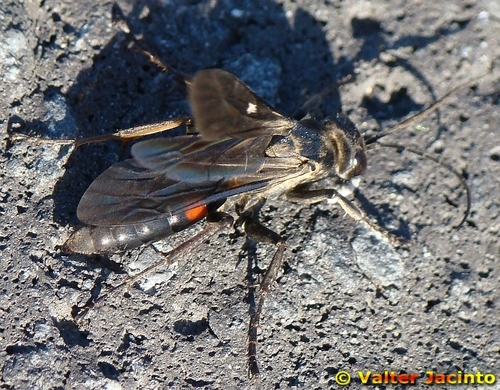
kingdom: Animalia
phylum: Arthropoda
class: Insecta
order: Hymenoptera
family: Pompilidae
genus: Arachnospila
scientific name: Arachnospila ausa
